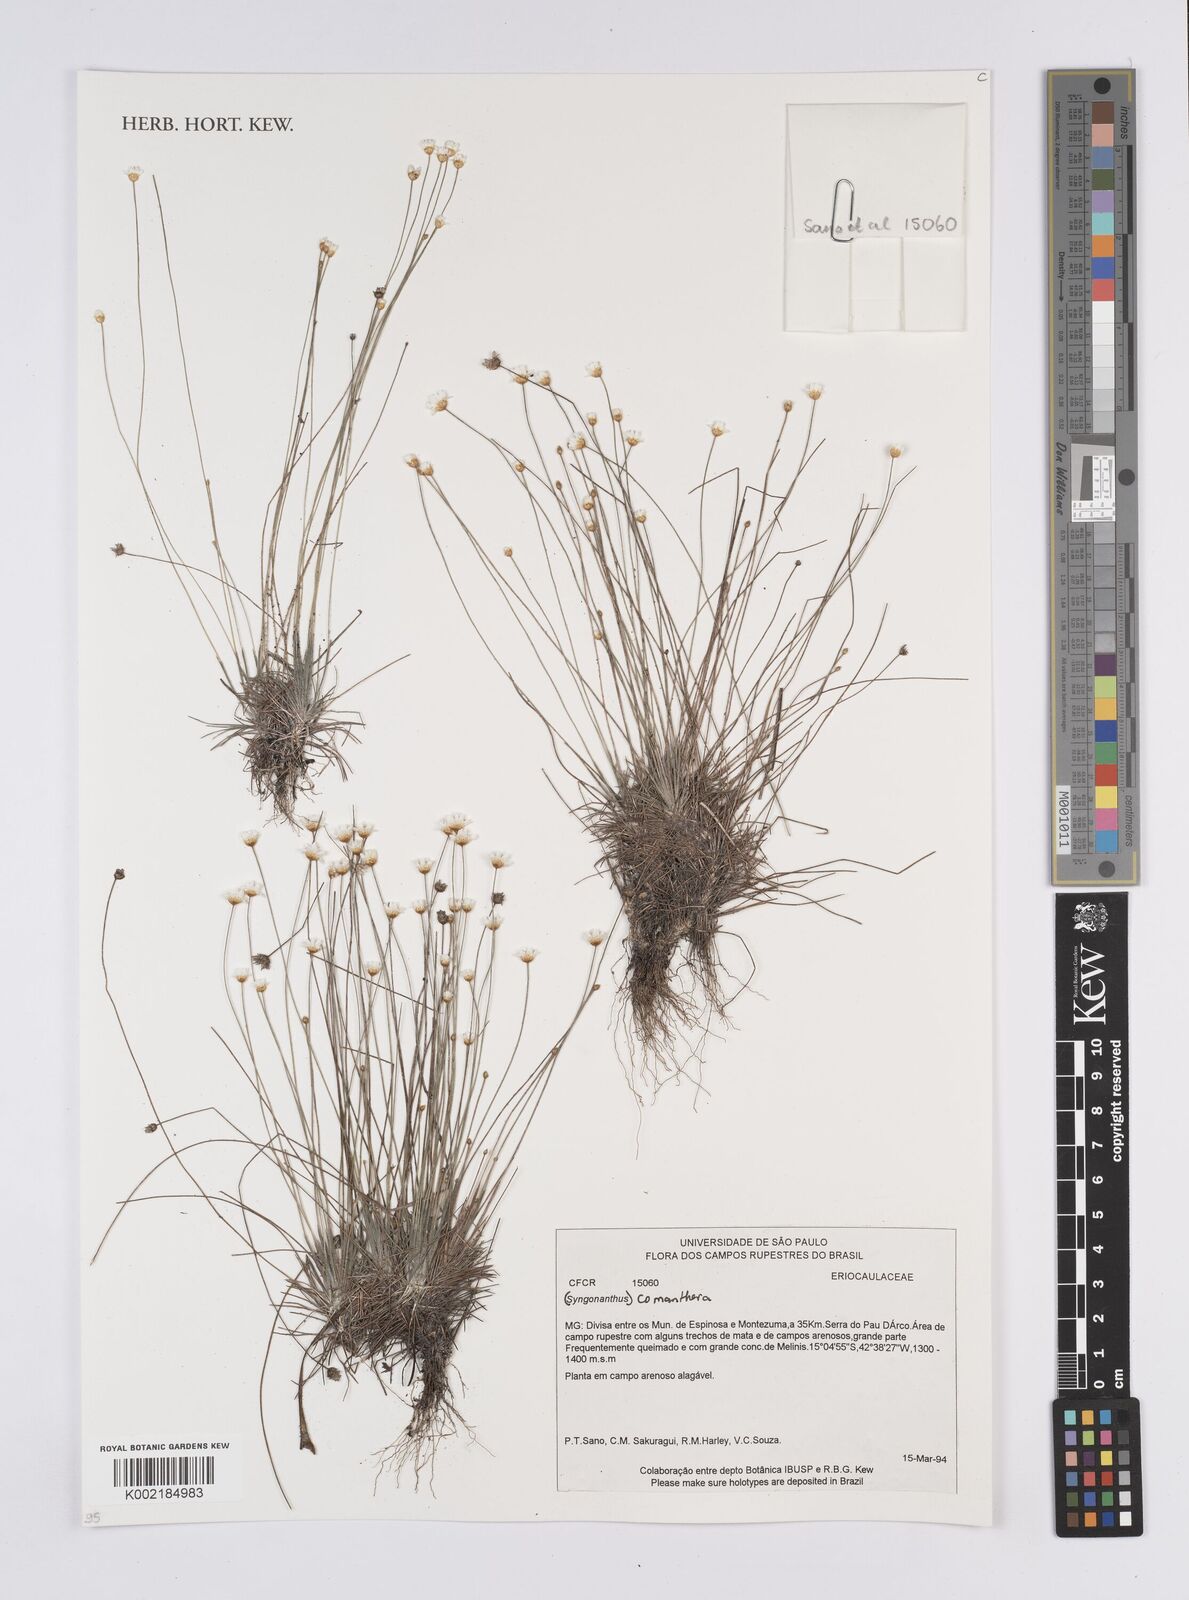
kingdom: Plantae
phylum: Tracheophyta
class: Liliopsida
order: Poales
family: Eriocaulaceae
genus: Comanthera
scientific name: Comanthera
